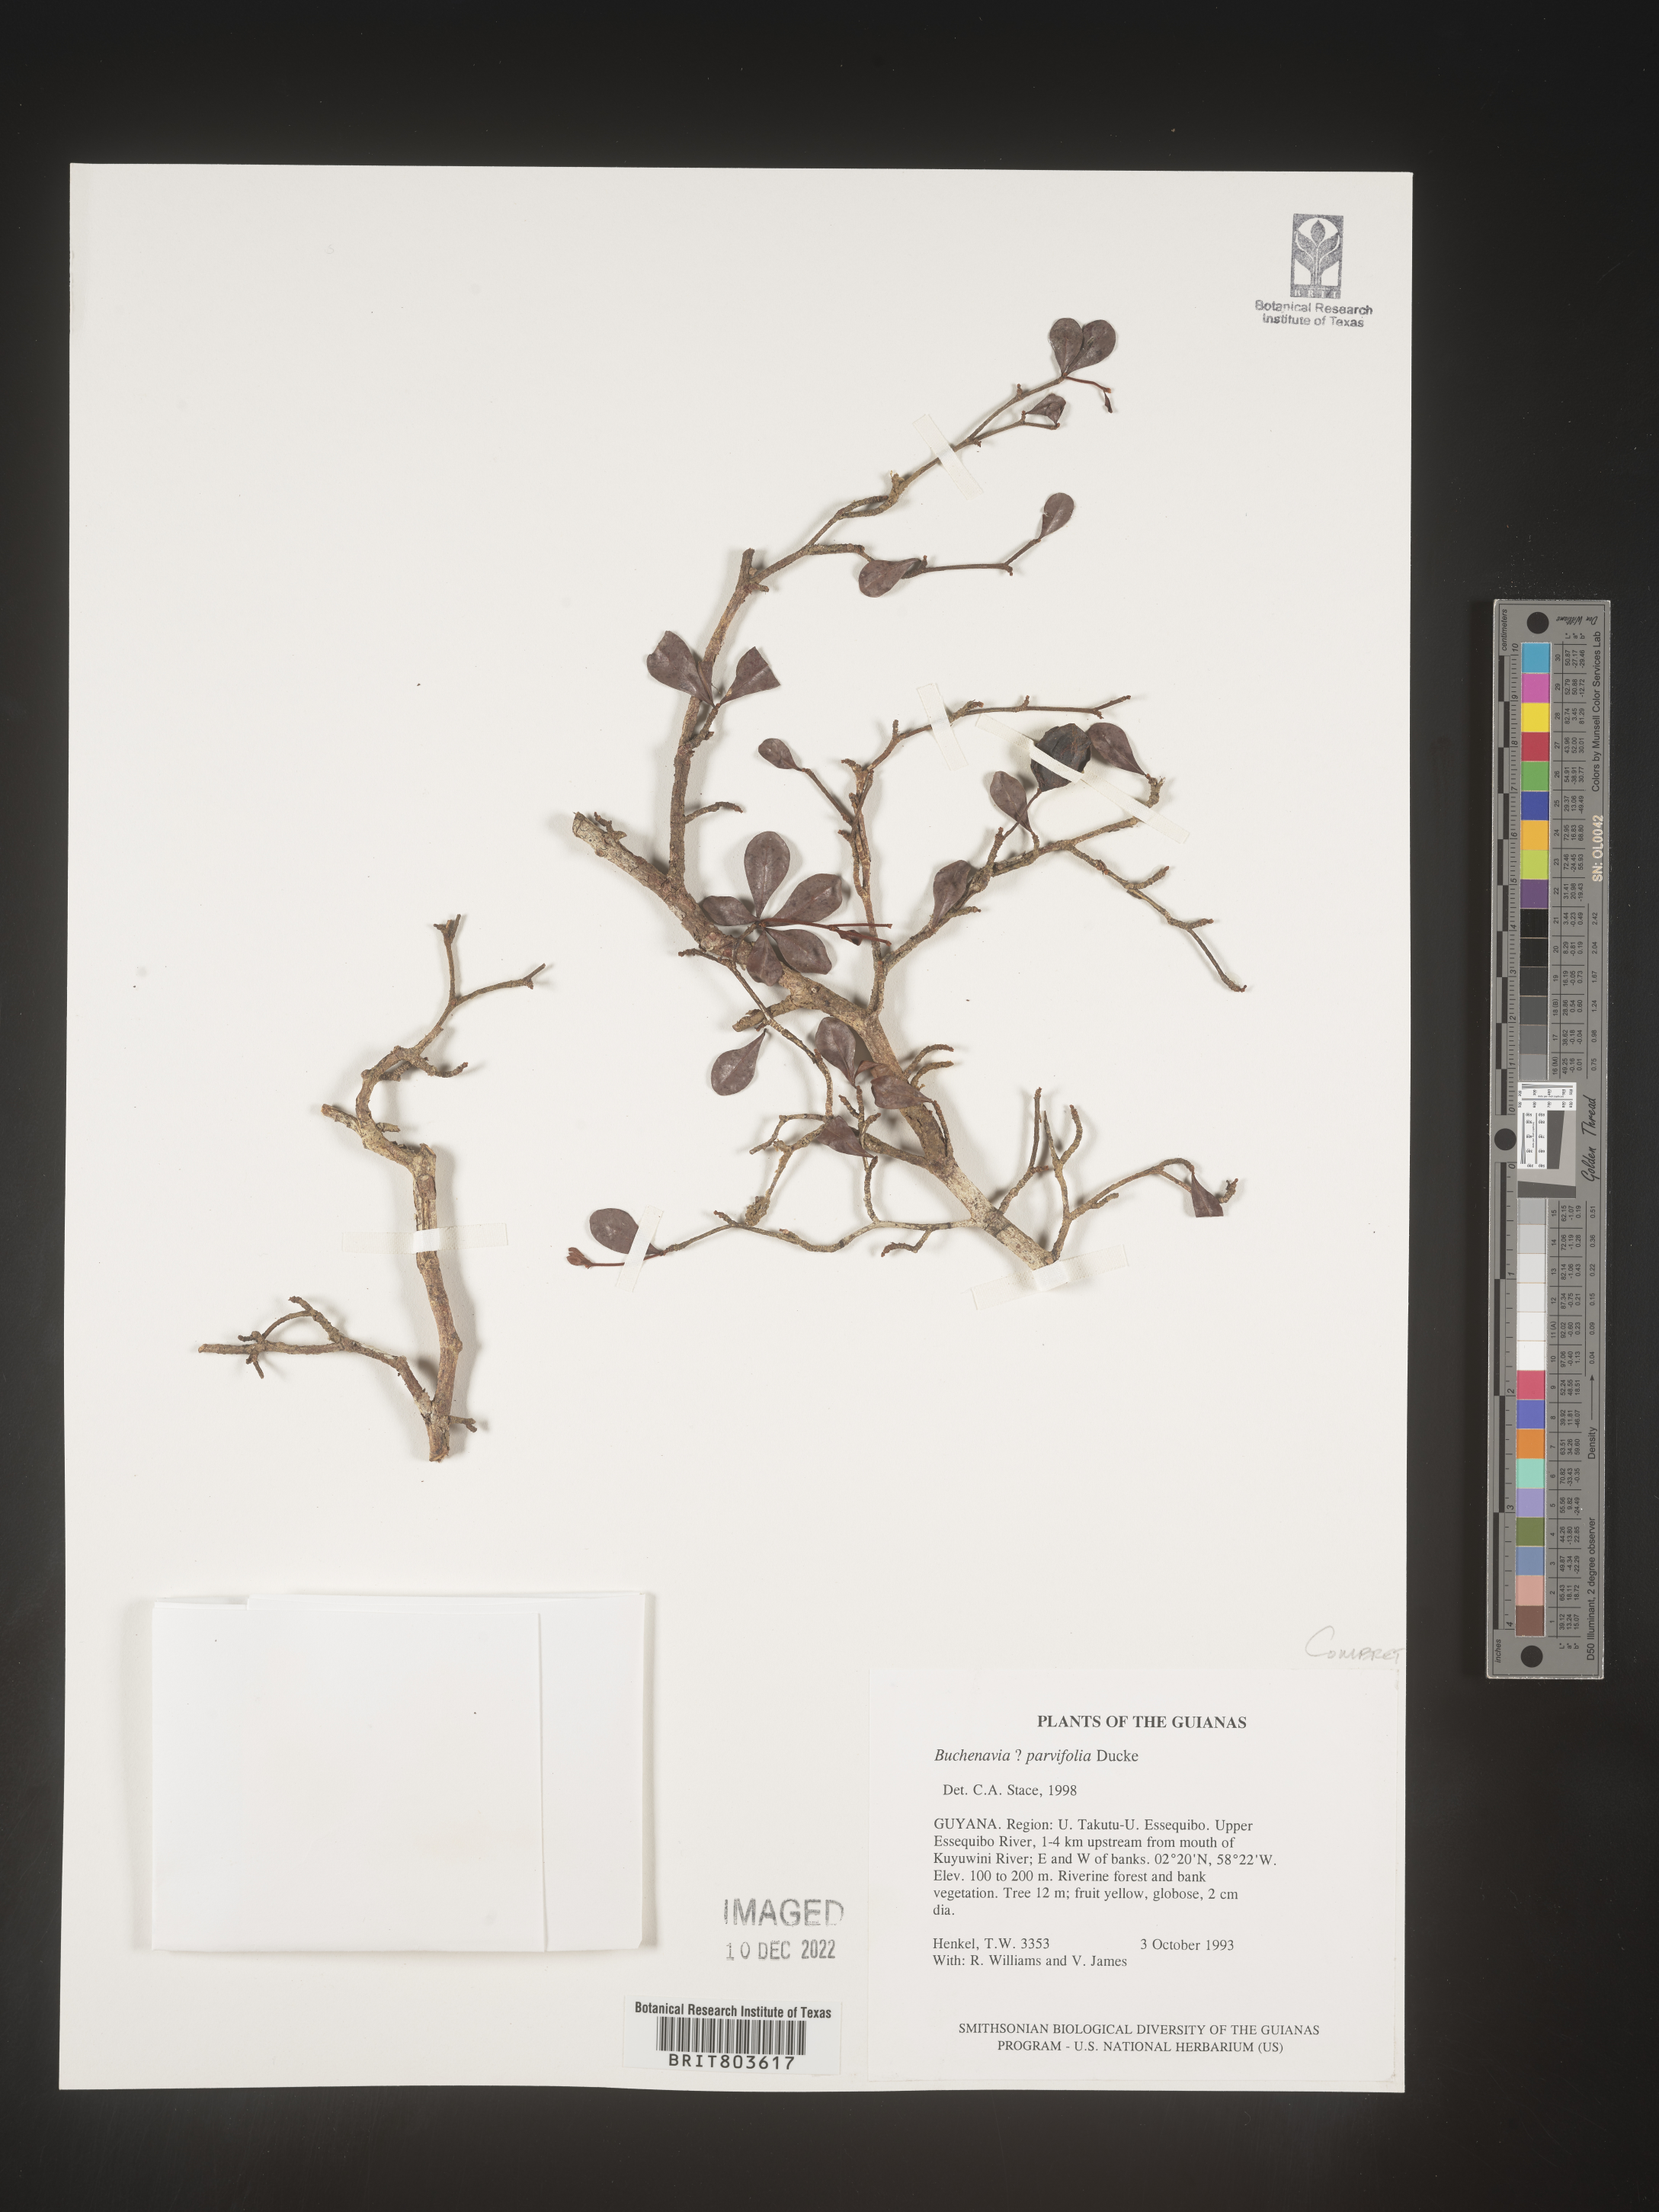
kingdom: Plantae
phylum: Tracheophyta
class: Magnoliopsida
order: Myrtales
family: Combretaceae
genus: Terminalia
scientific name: Terminalia
